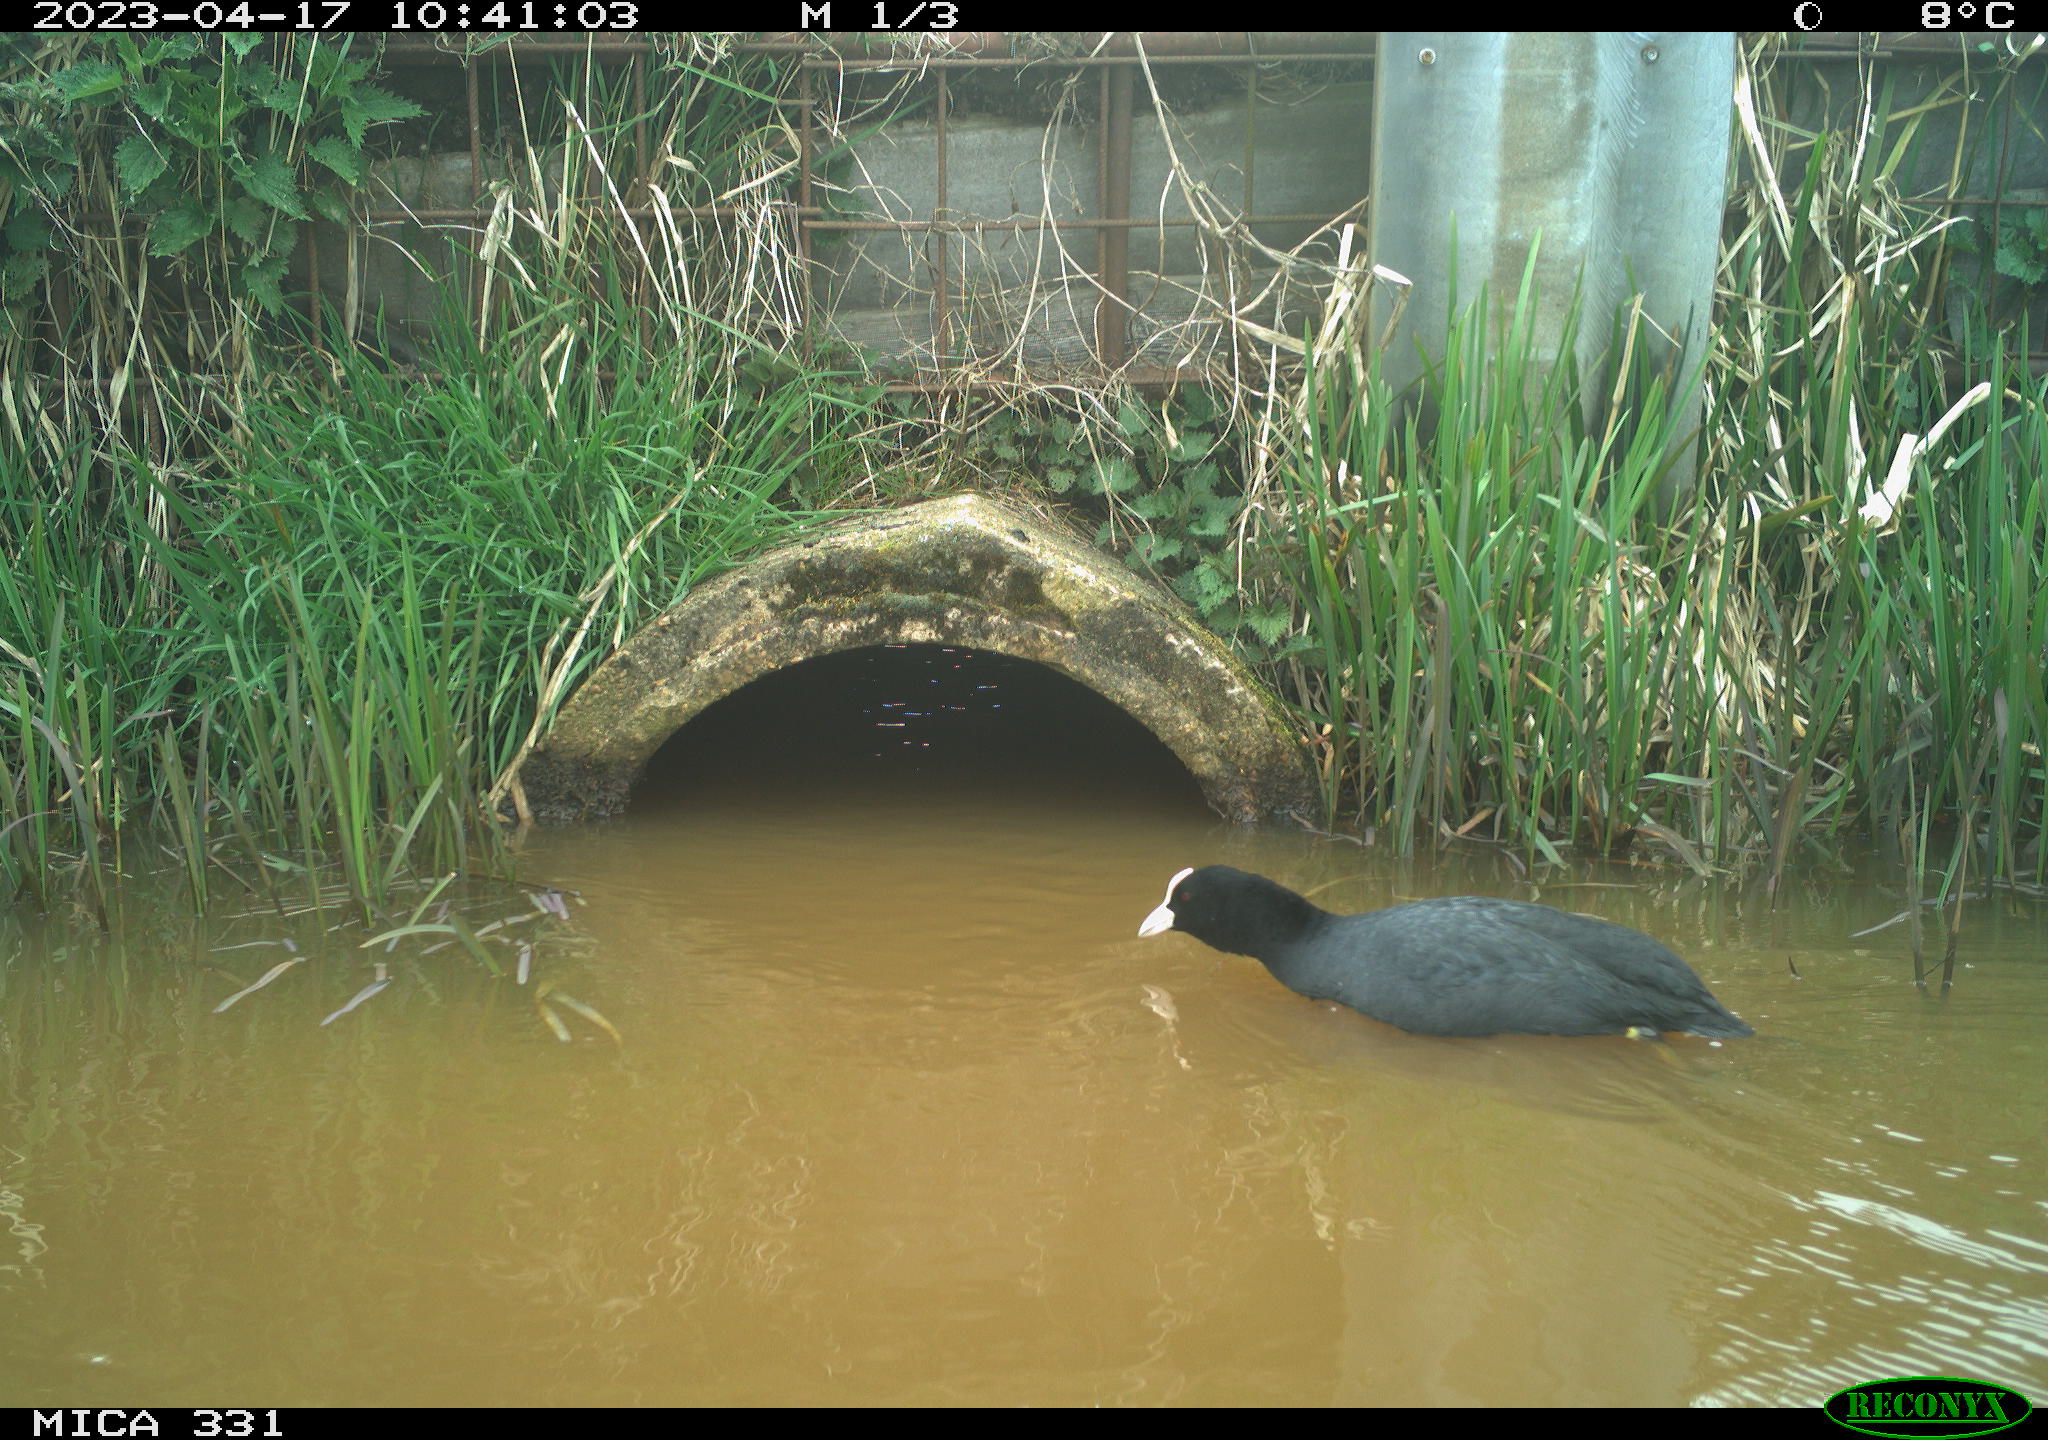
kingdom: Animalia
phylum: Chordata
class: Aves
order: Gruiformes
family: Rallidae
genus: Fulica
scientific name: Fulica atra
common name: Eurasian coot
